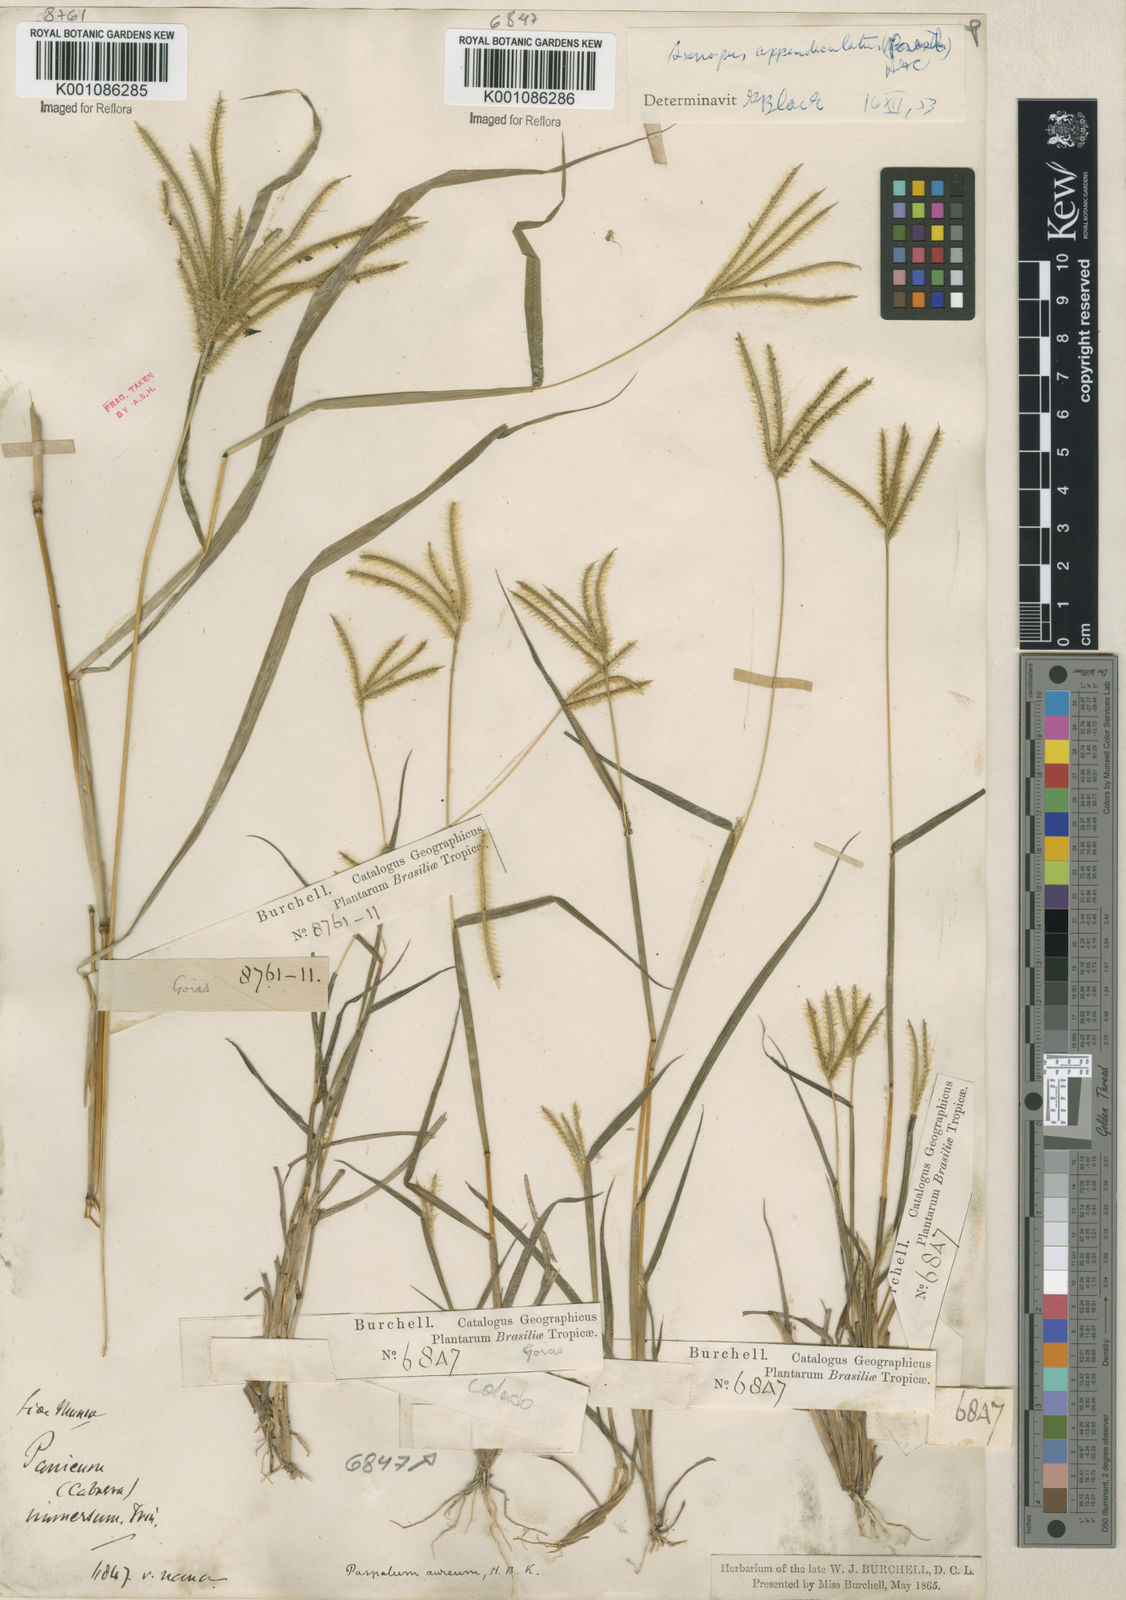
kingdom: Plantae
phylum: Tracheophyta
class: Liliopsida
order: Poales
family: Poaceae
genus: Axonopus
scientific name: Axonopus chrysoblepharis
